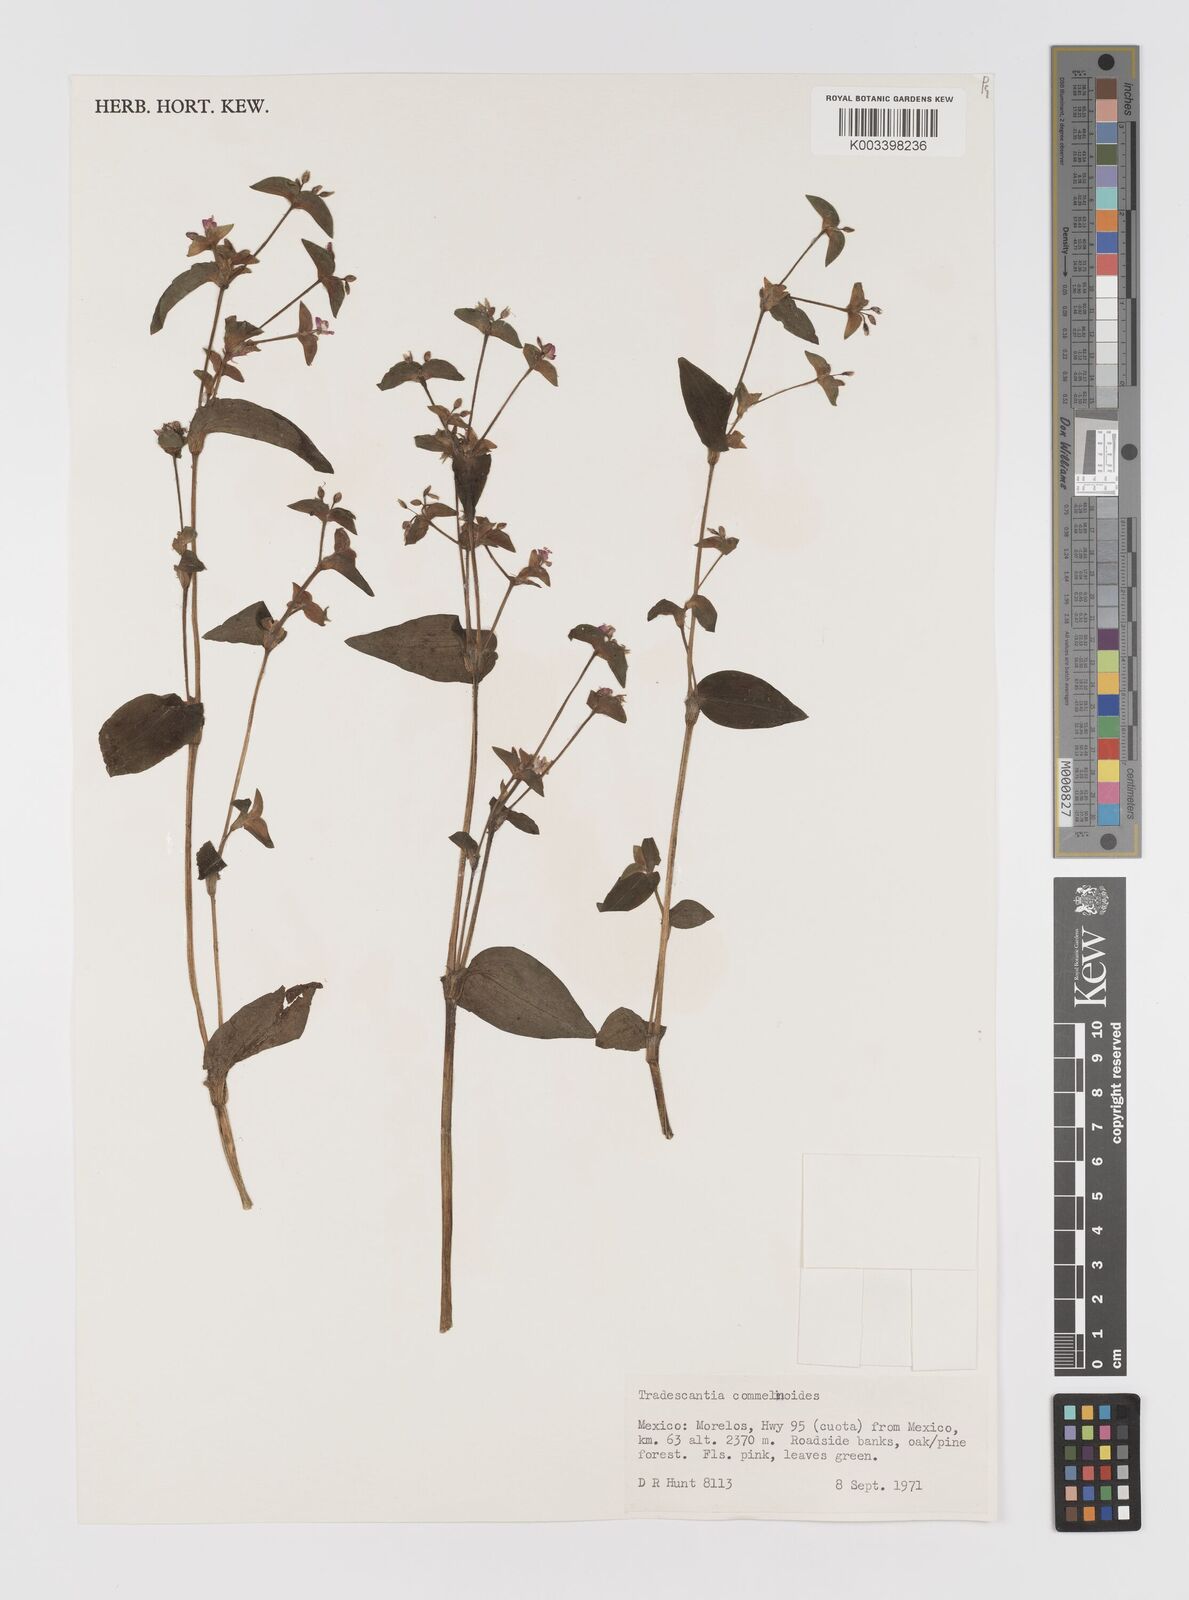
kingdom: Plantae
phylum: Tracheophyta
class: Liliopsida
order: Commelinales
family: Commelinaceae
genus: Tradescantia
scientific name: Tradescantia commelinoides
